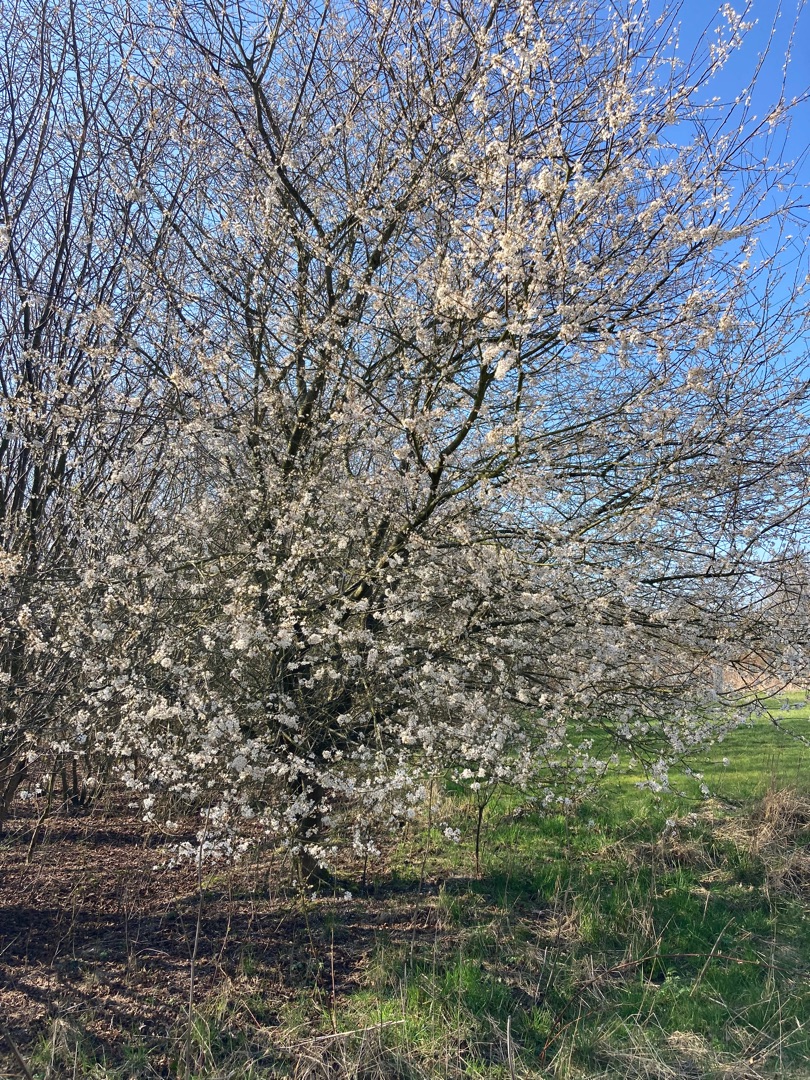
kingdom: Plantae
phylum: Tracheophyta
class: Magnoliopsida
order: Rosales
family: Rosaceae
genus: Prunus
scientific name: Prunus cerasifera
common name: Mirabel
